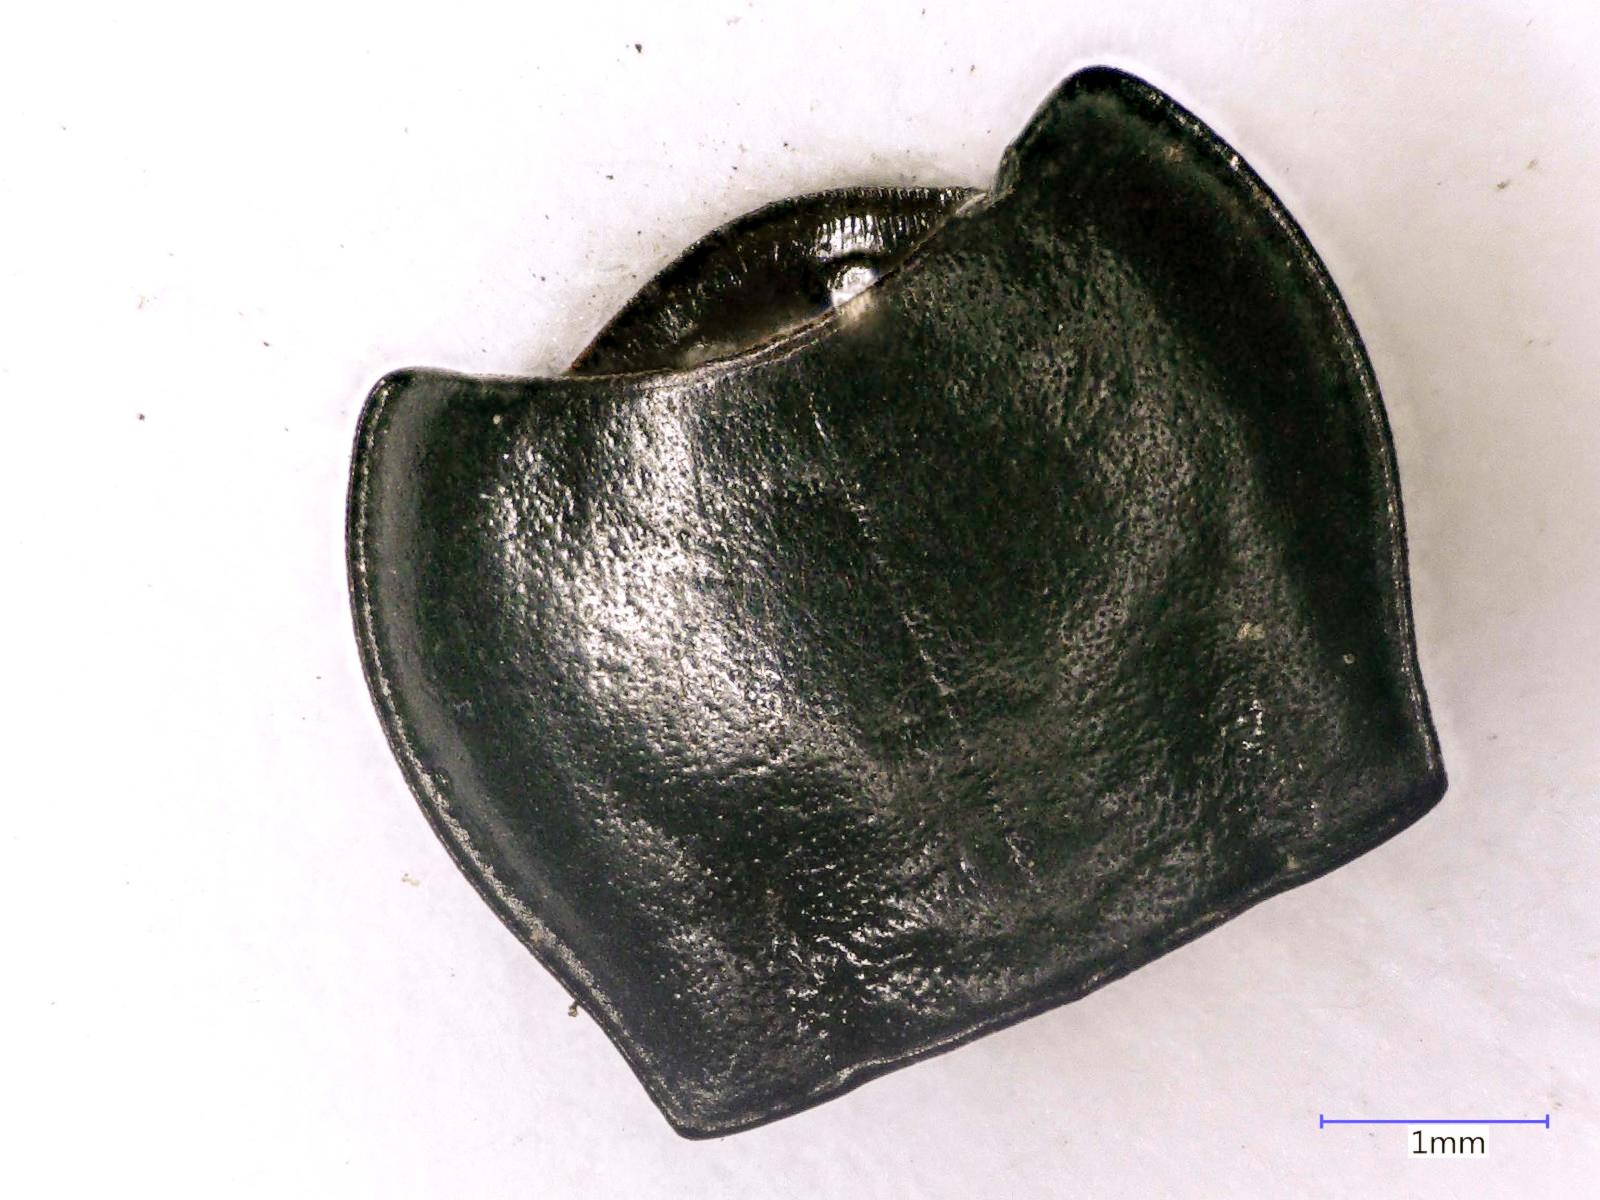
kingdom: Animalia
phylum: Arthropoda
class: Insecta
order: Coleoptera
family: Carabidae
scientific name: Carabidae
